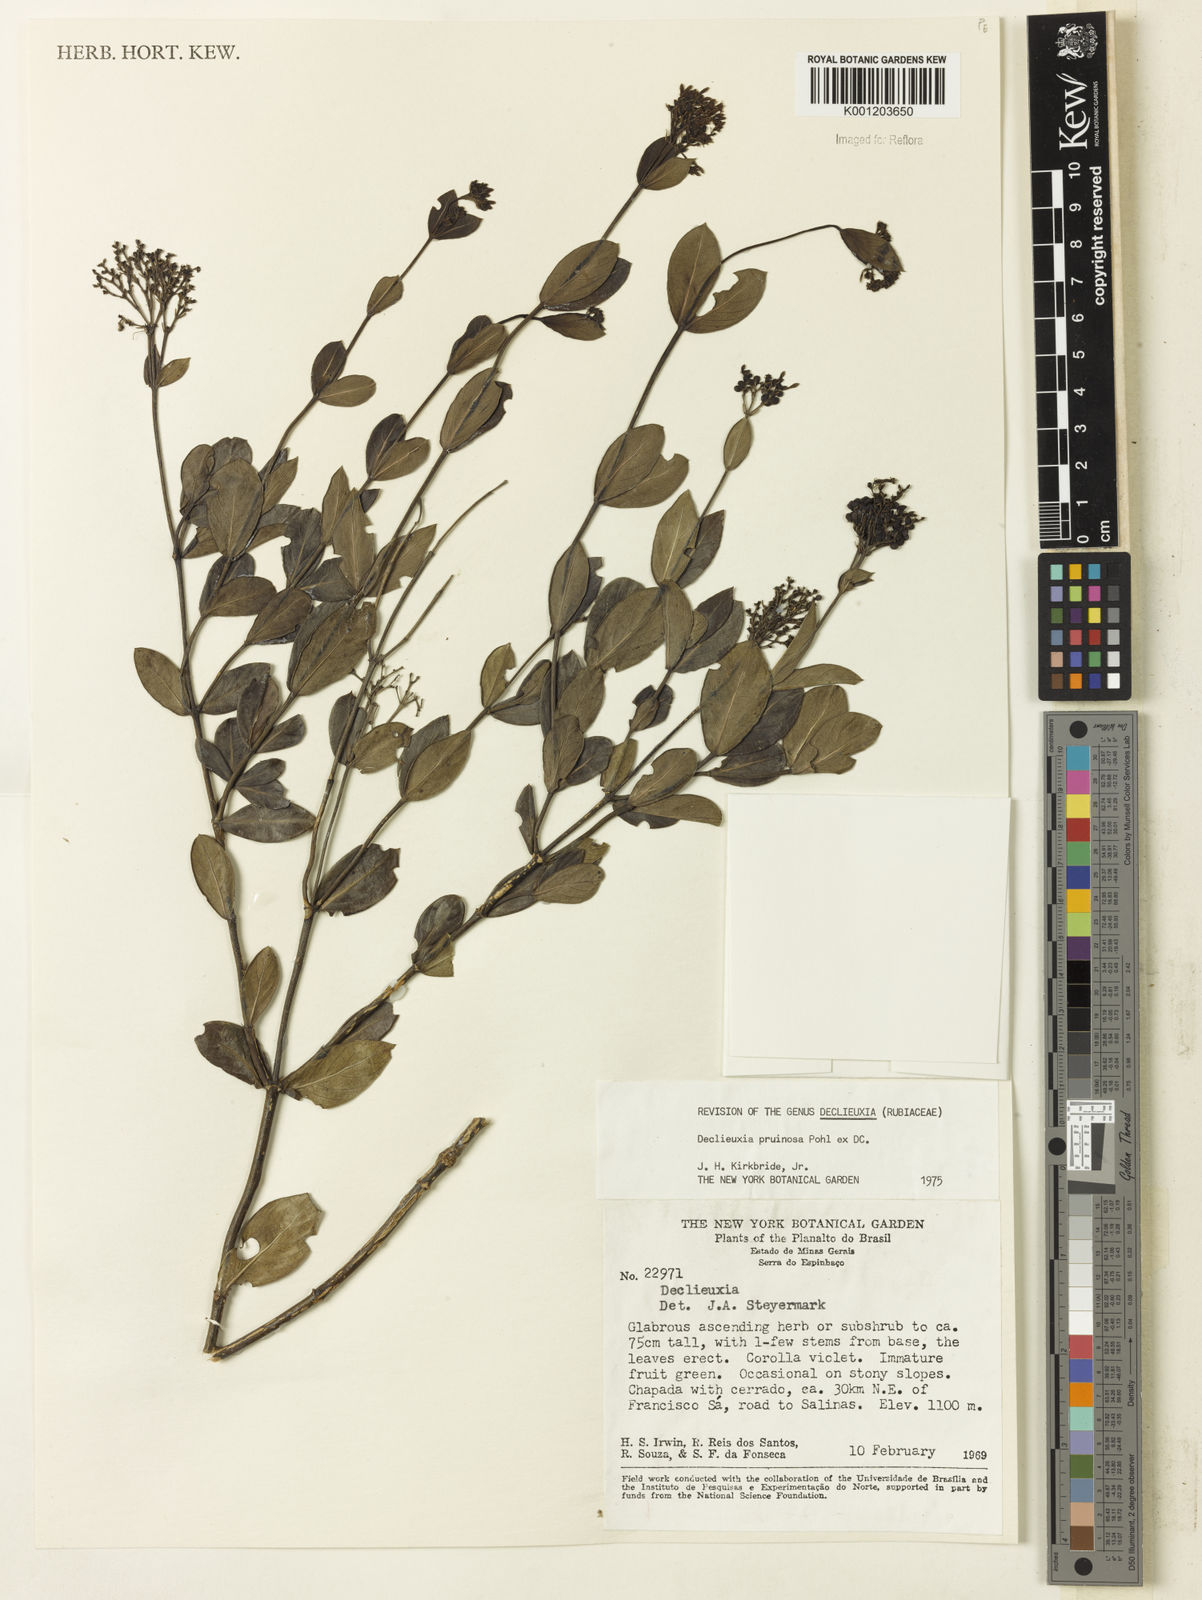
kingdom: Plantae
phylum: Tracheophyta
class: Magnoliopsida
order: Gentianales
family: Rubiaceae
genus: Declieuxia
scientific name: Declieuxia pruinosa
